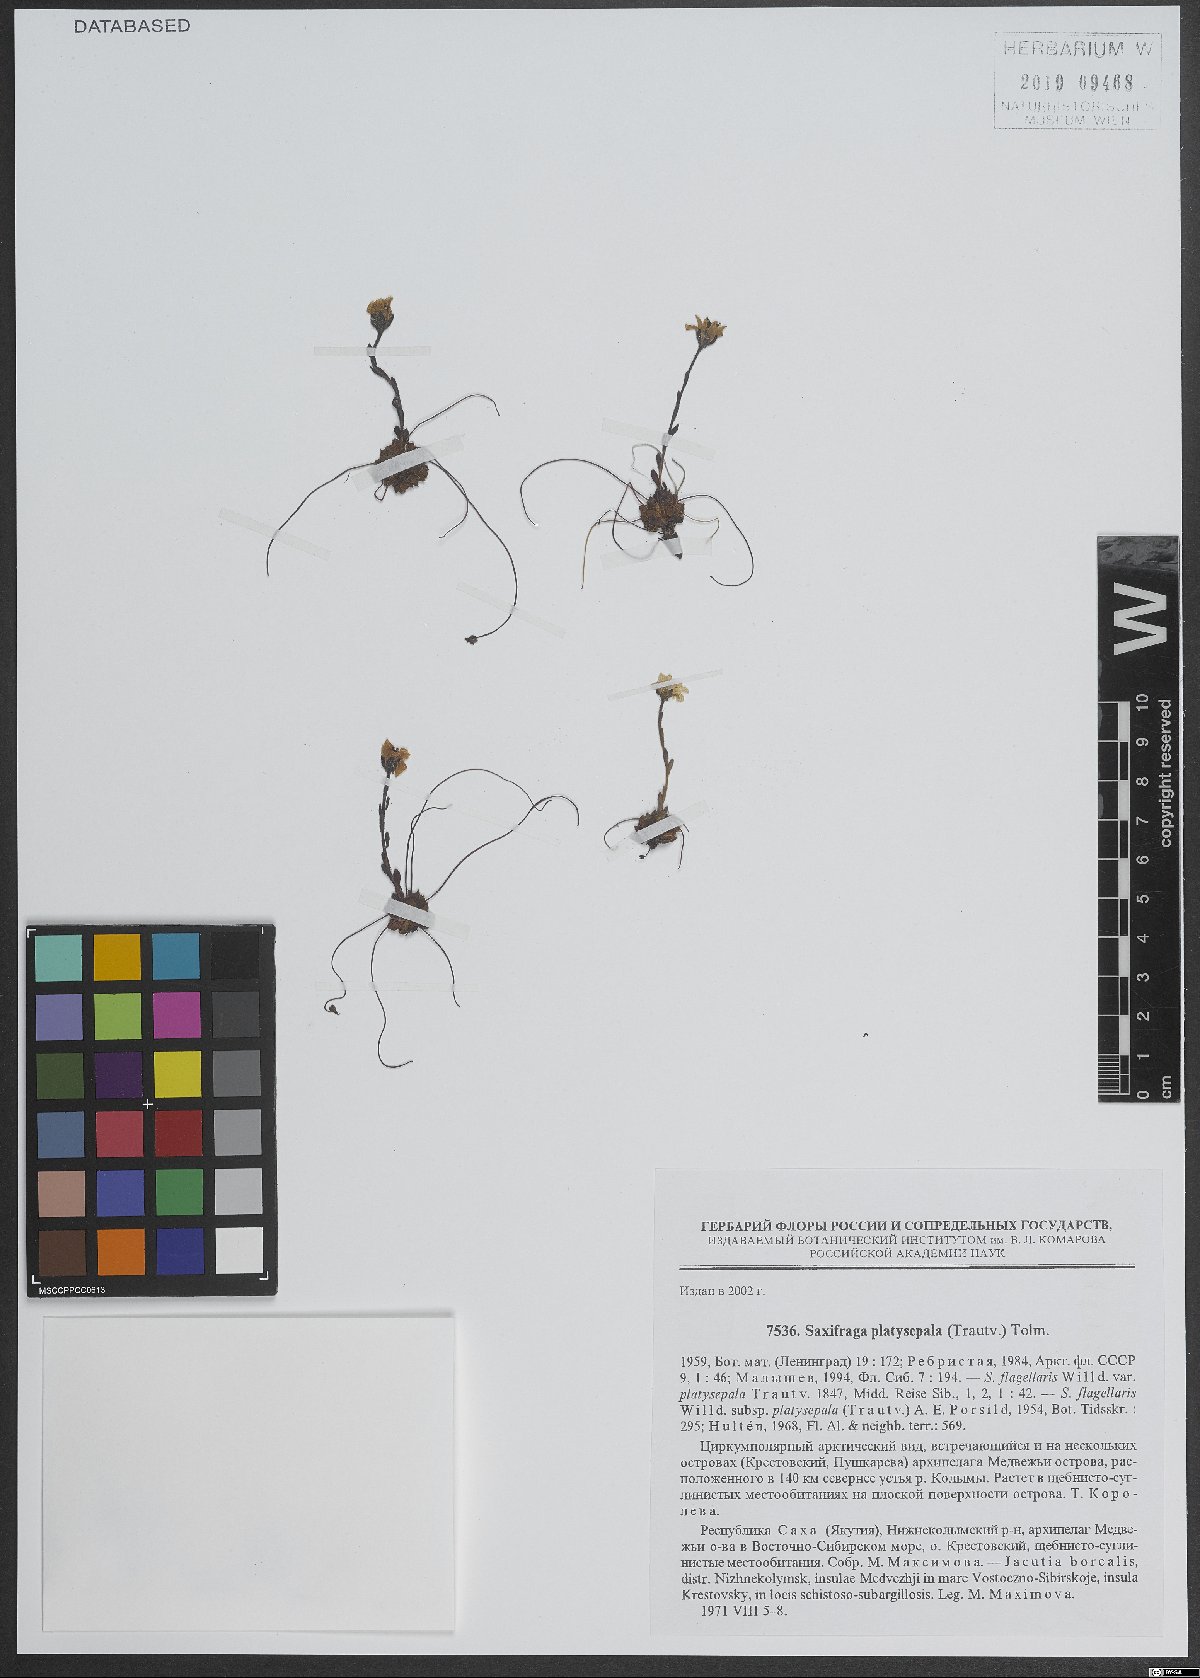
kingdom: Plantae
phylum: Tracheophyta
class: Magnoliopsida
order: Saxifragales
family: Saxifragaceae
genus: Saxifraga
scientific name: Saxifraga platysepala
